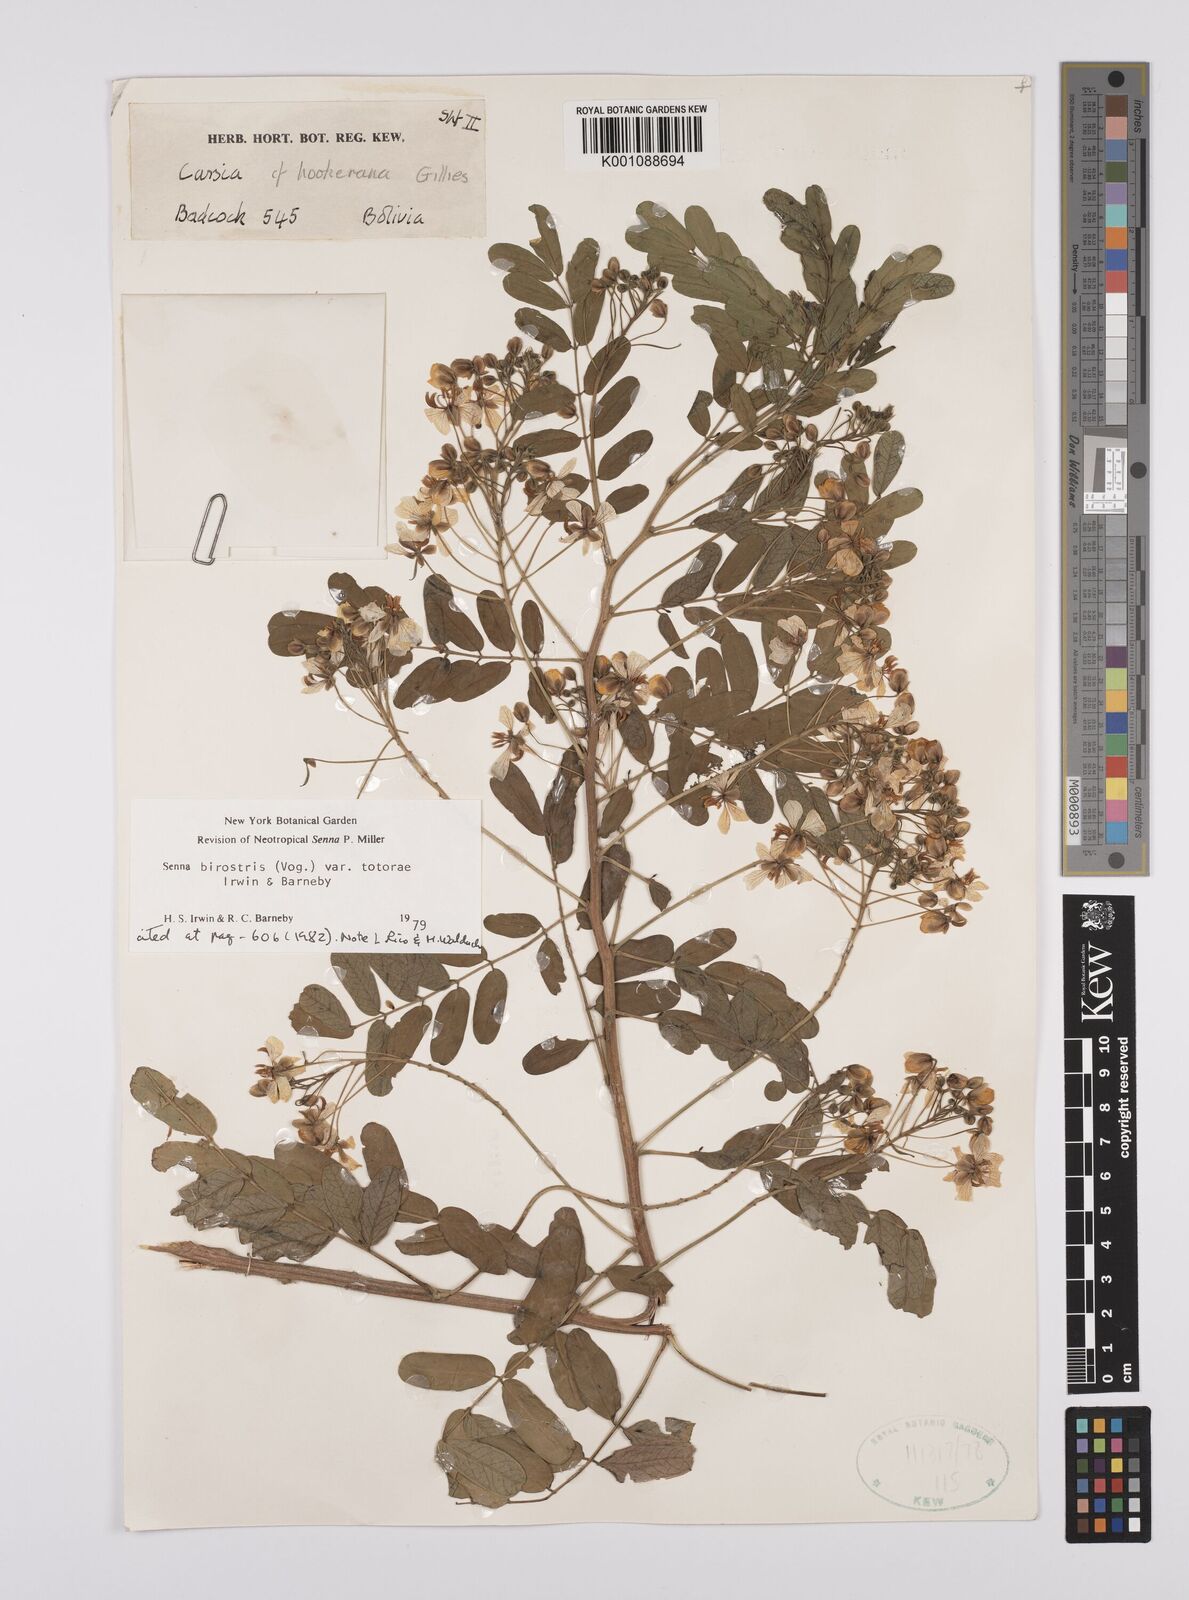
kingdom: Plantae
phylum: Tracheophyta
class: Magnoliopsida
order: Fabales
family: Fabaceae
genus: Senna
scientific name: Senna birostris
